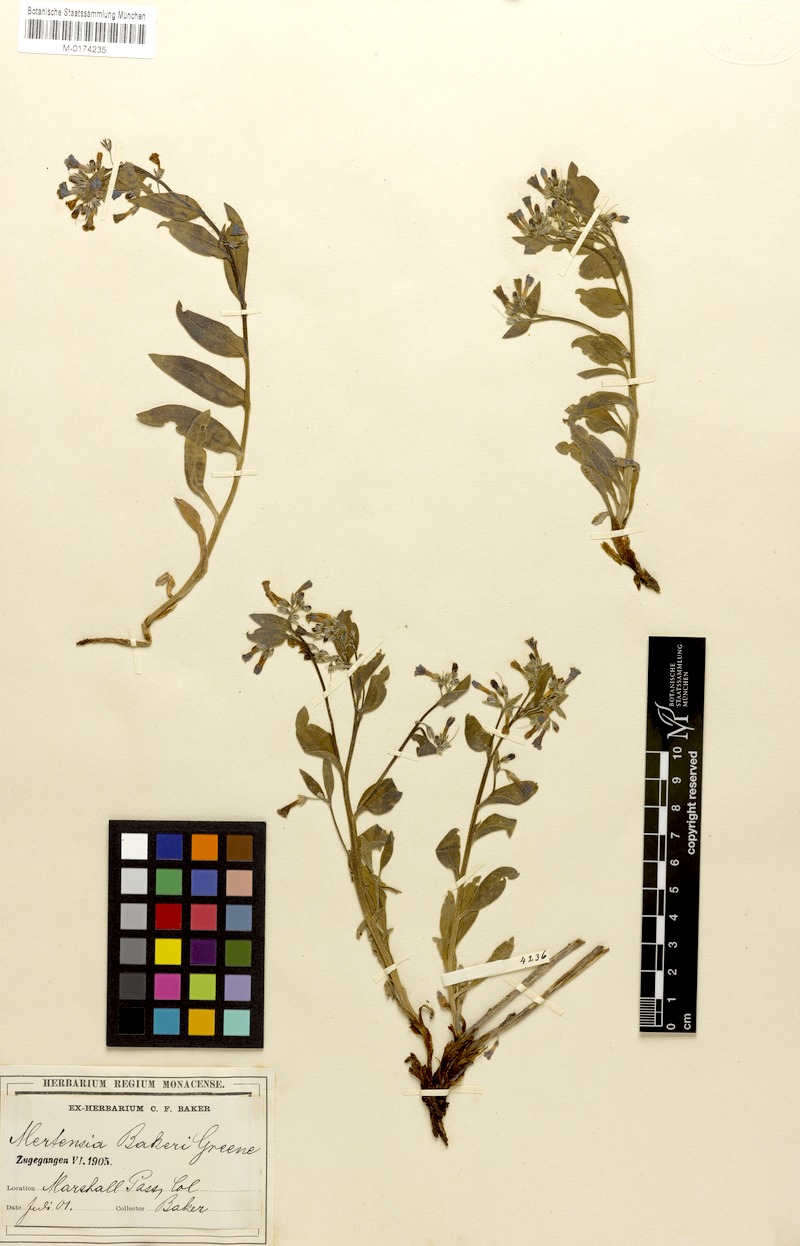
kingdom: Plantae
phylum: Tracheophyta
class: Magnoliopsida
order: Boraginales
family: Boraginaceae
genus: Mertensia
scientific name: Mertensia bakeri
